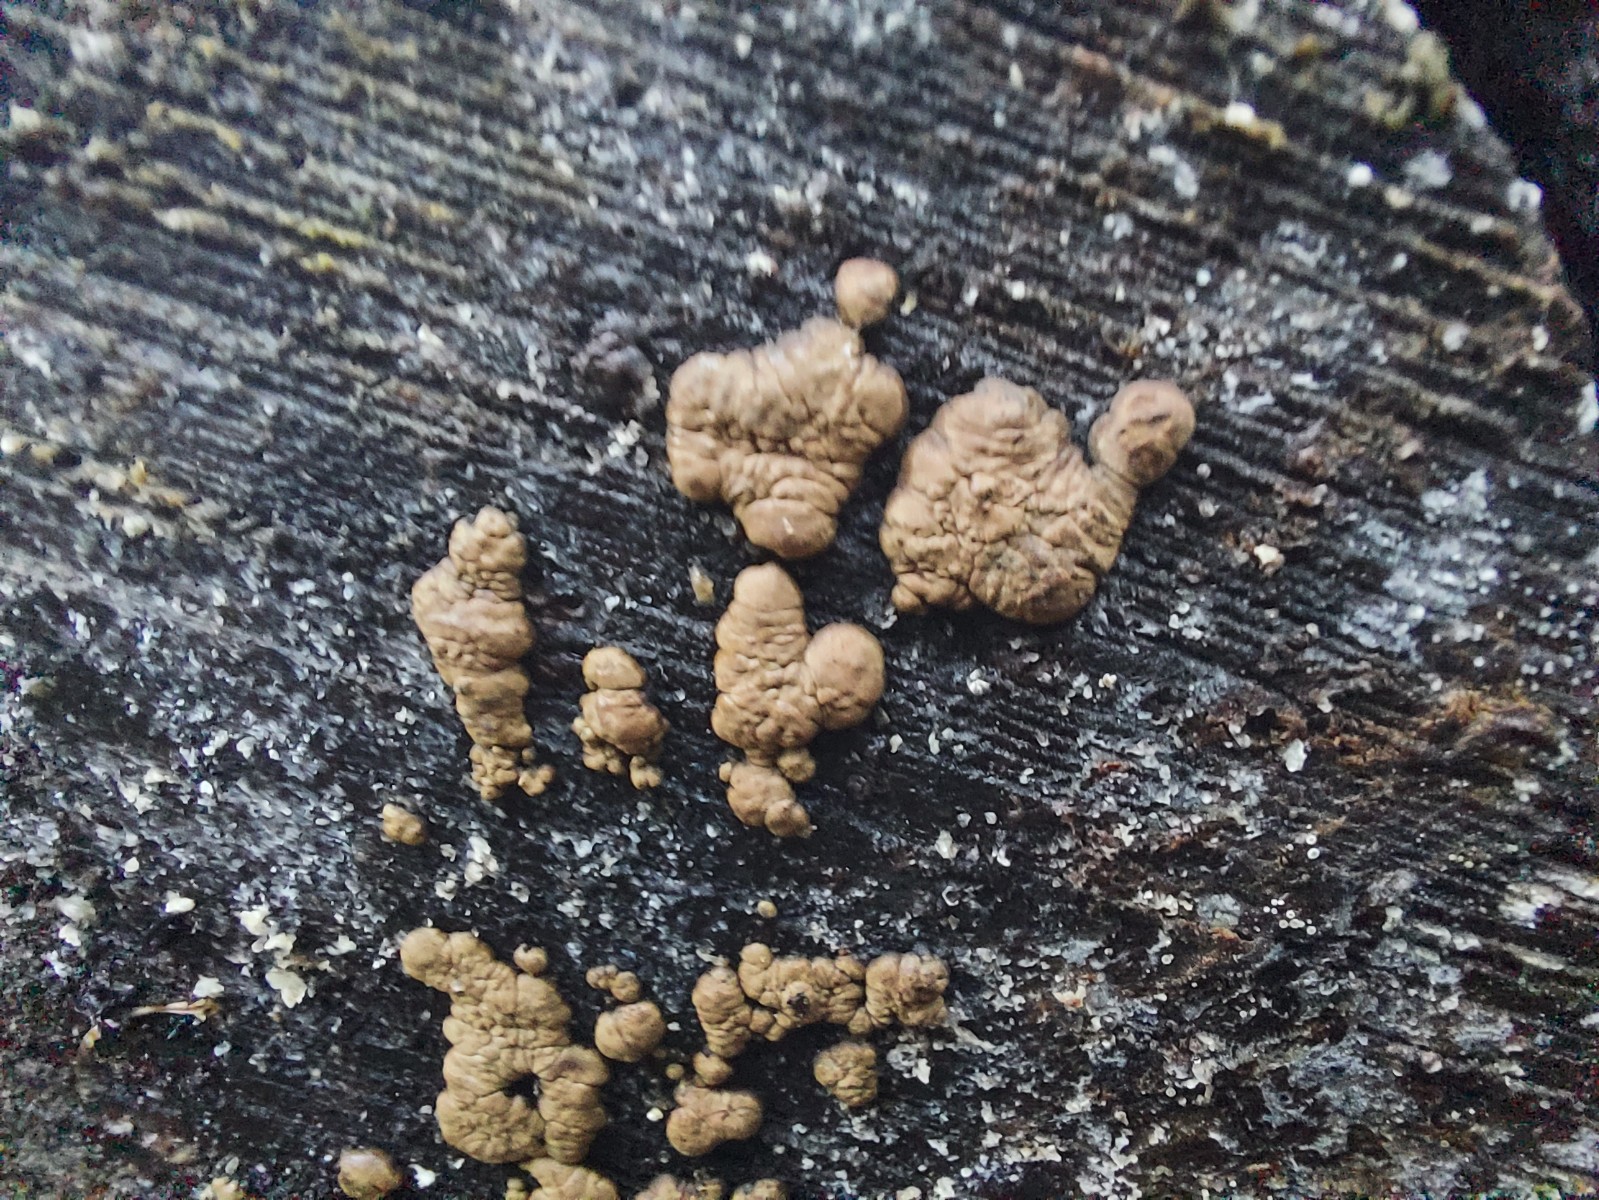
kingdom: Fungi
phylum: Ascomycota
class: Sordariomycetes
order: Xylariales
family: Hypoxylaceae
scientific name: Hypoxylaceae
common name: kulbærfamilien
